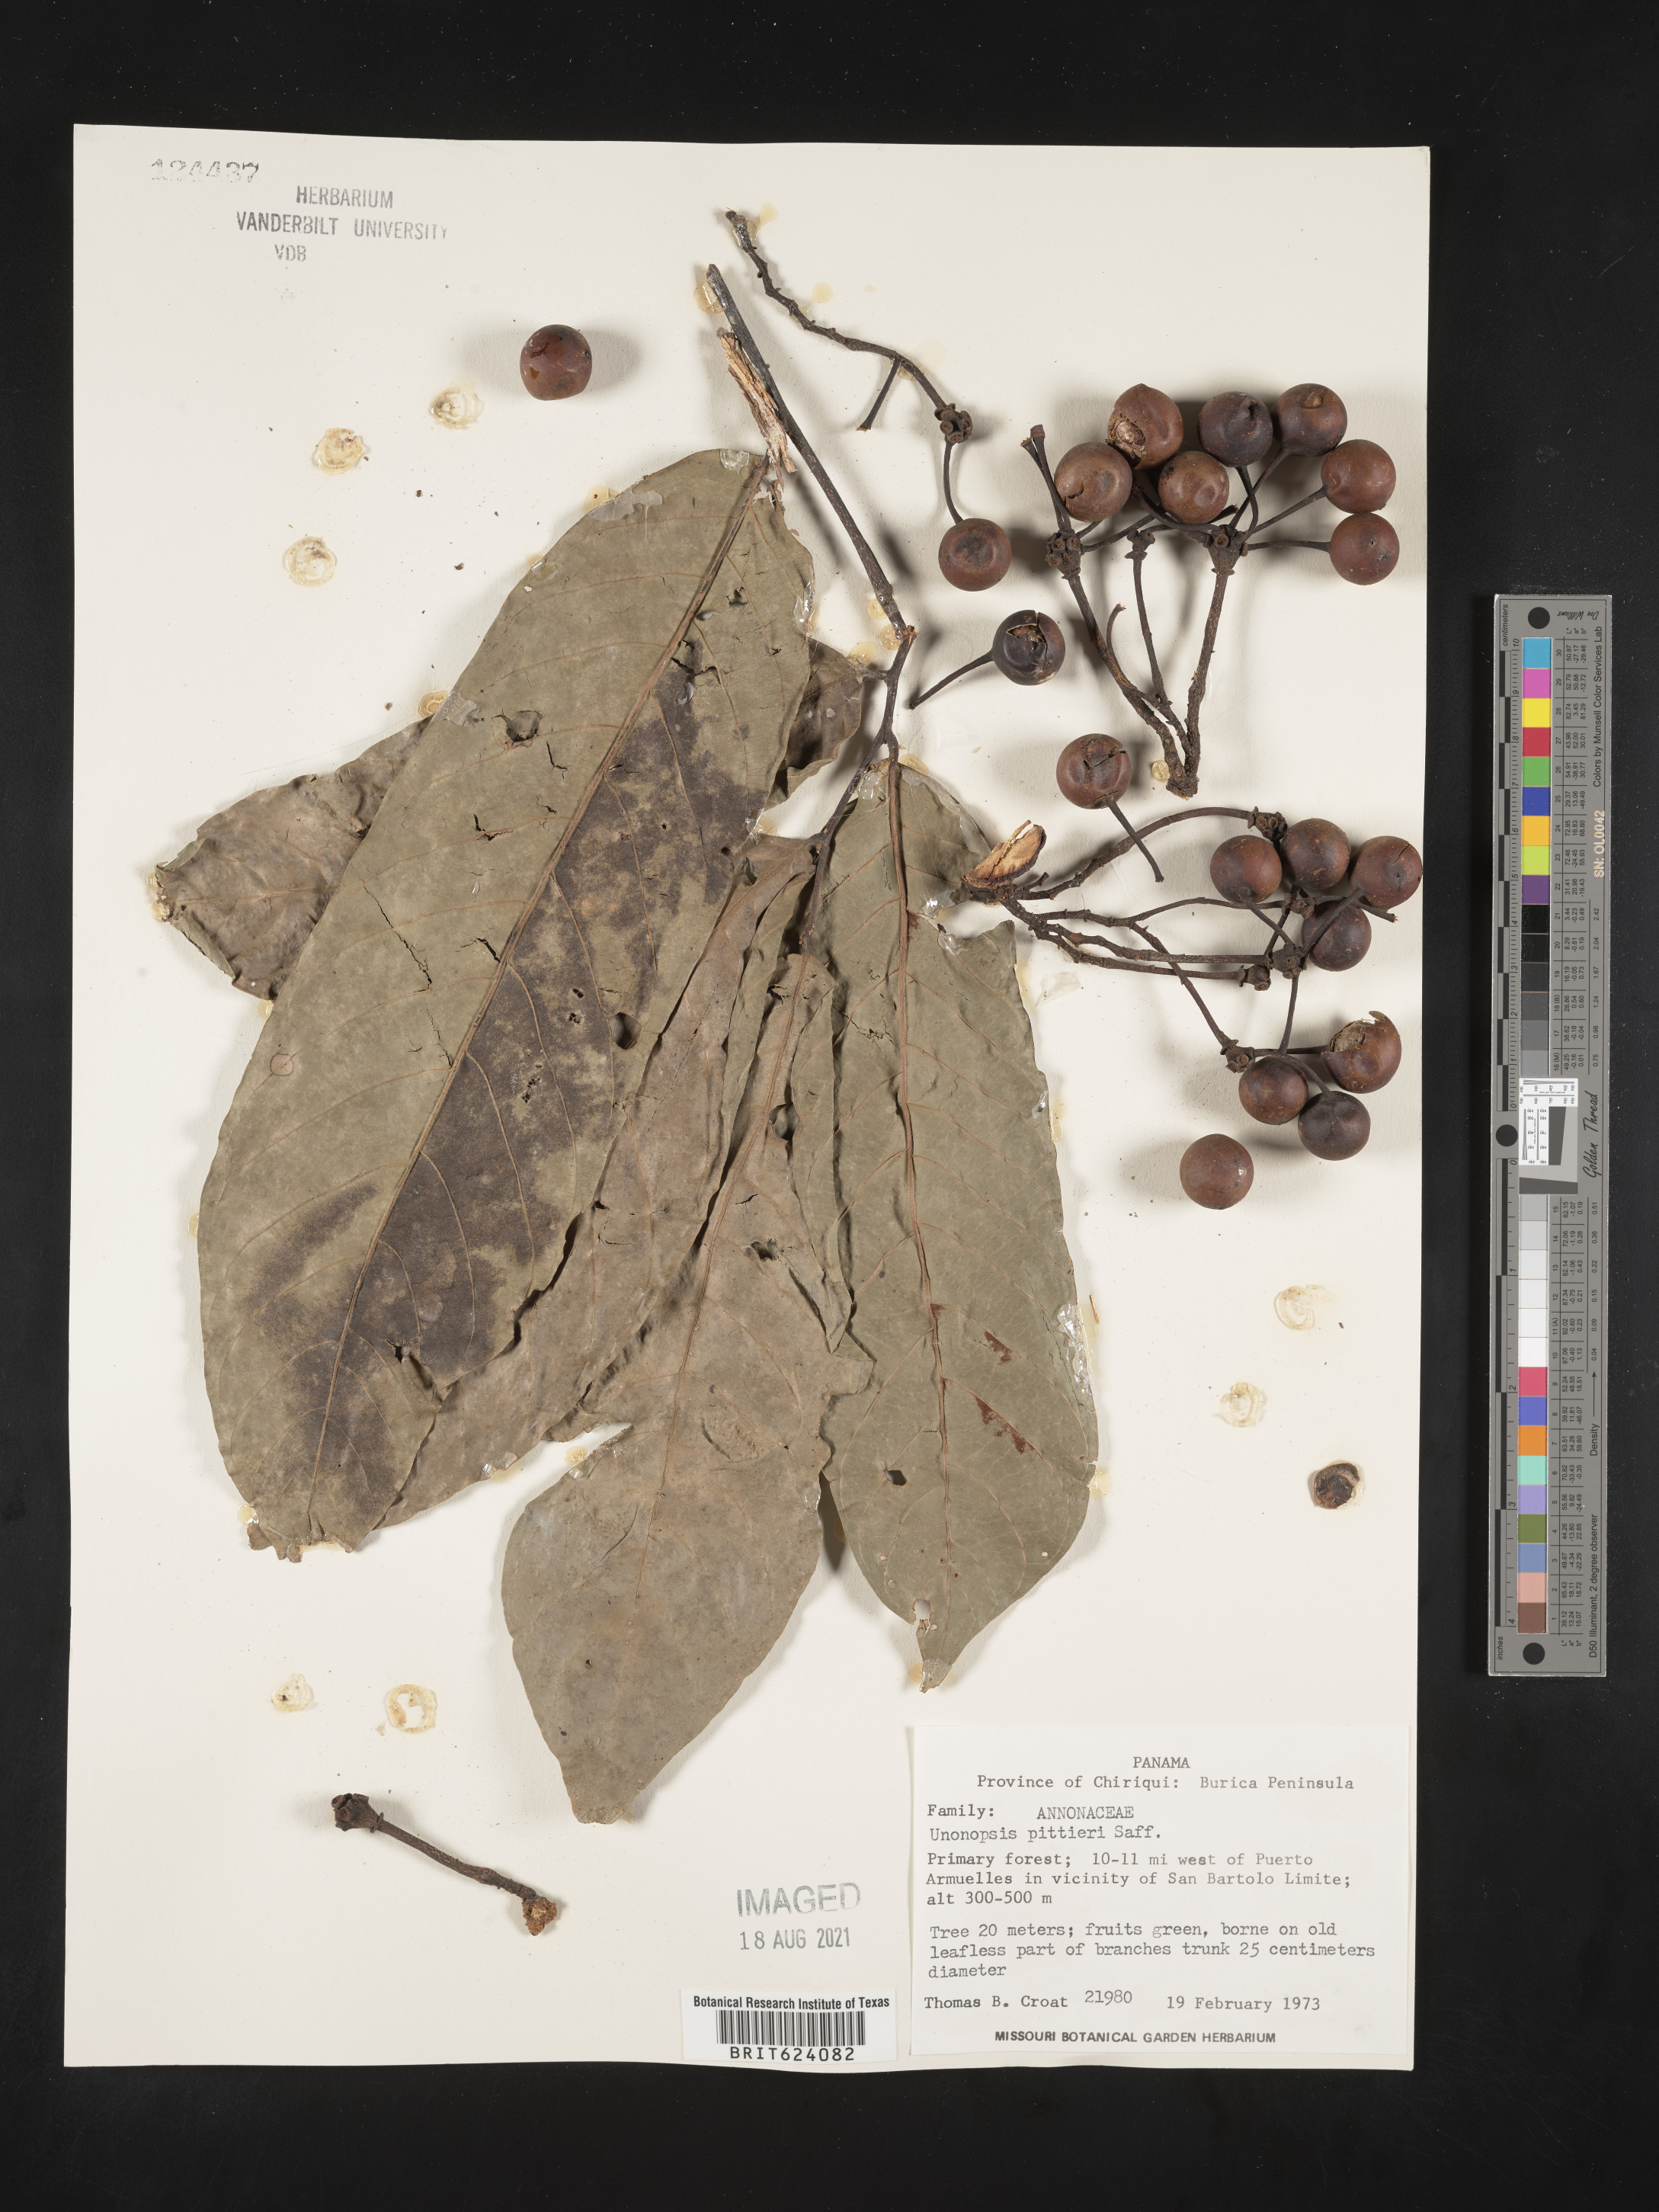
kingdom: Plantae
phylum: Tracheophyta
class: Magnoliopsida
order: Magnoliales
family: Annonaceae
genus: Unonopsis
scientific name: Unonopsis pittieri
